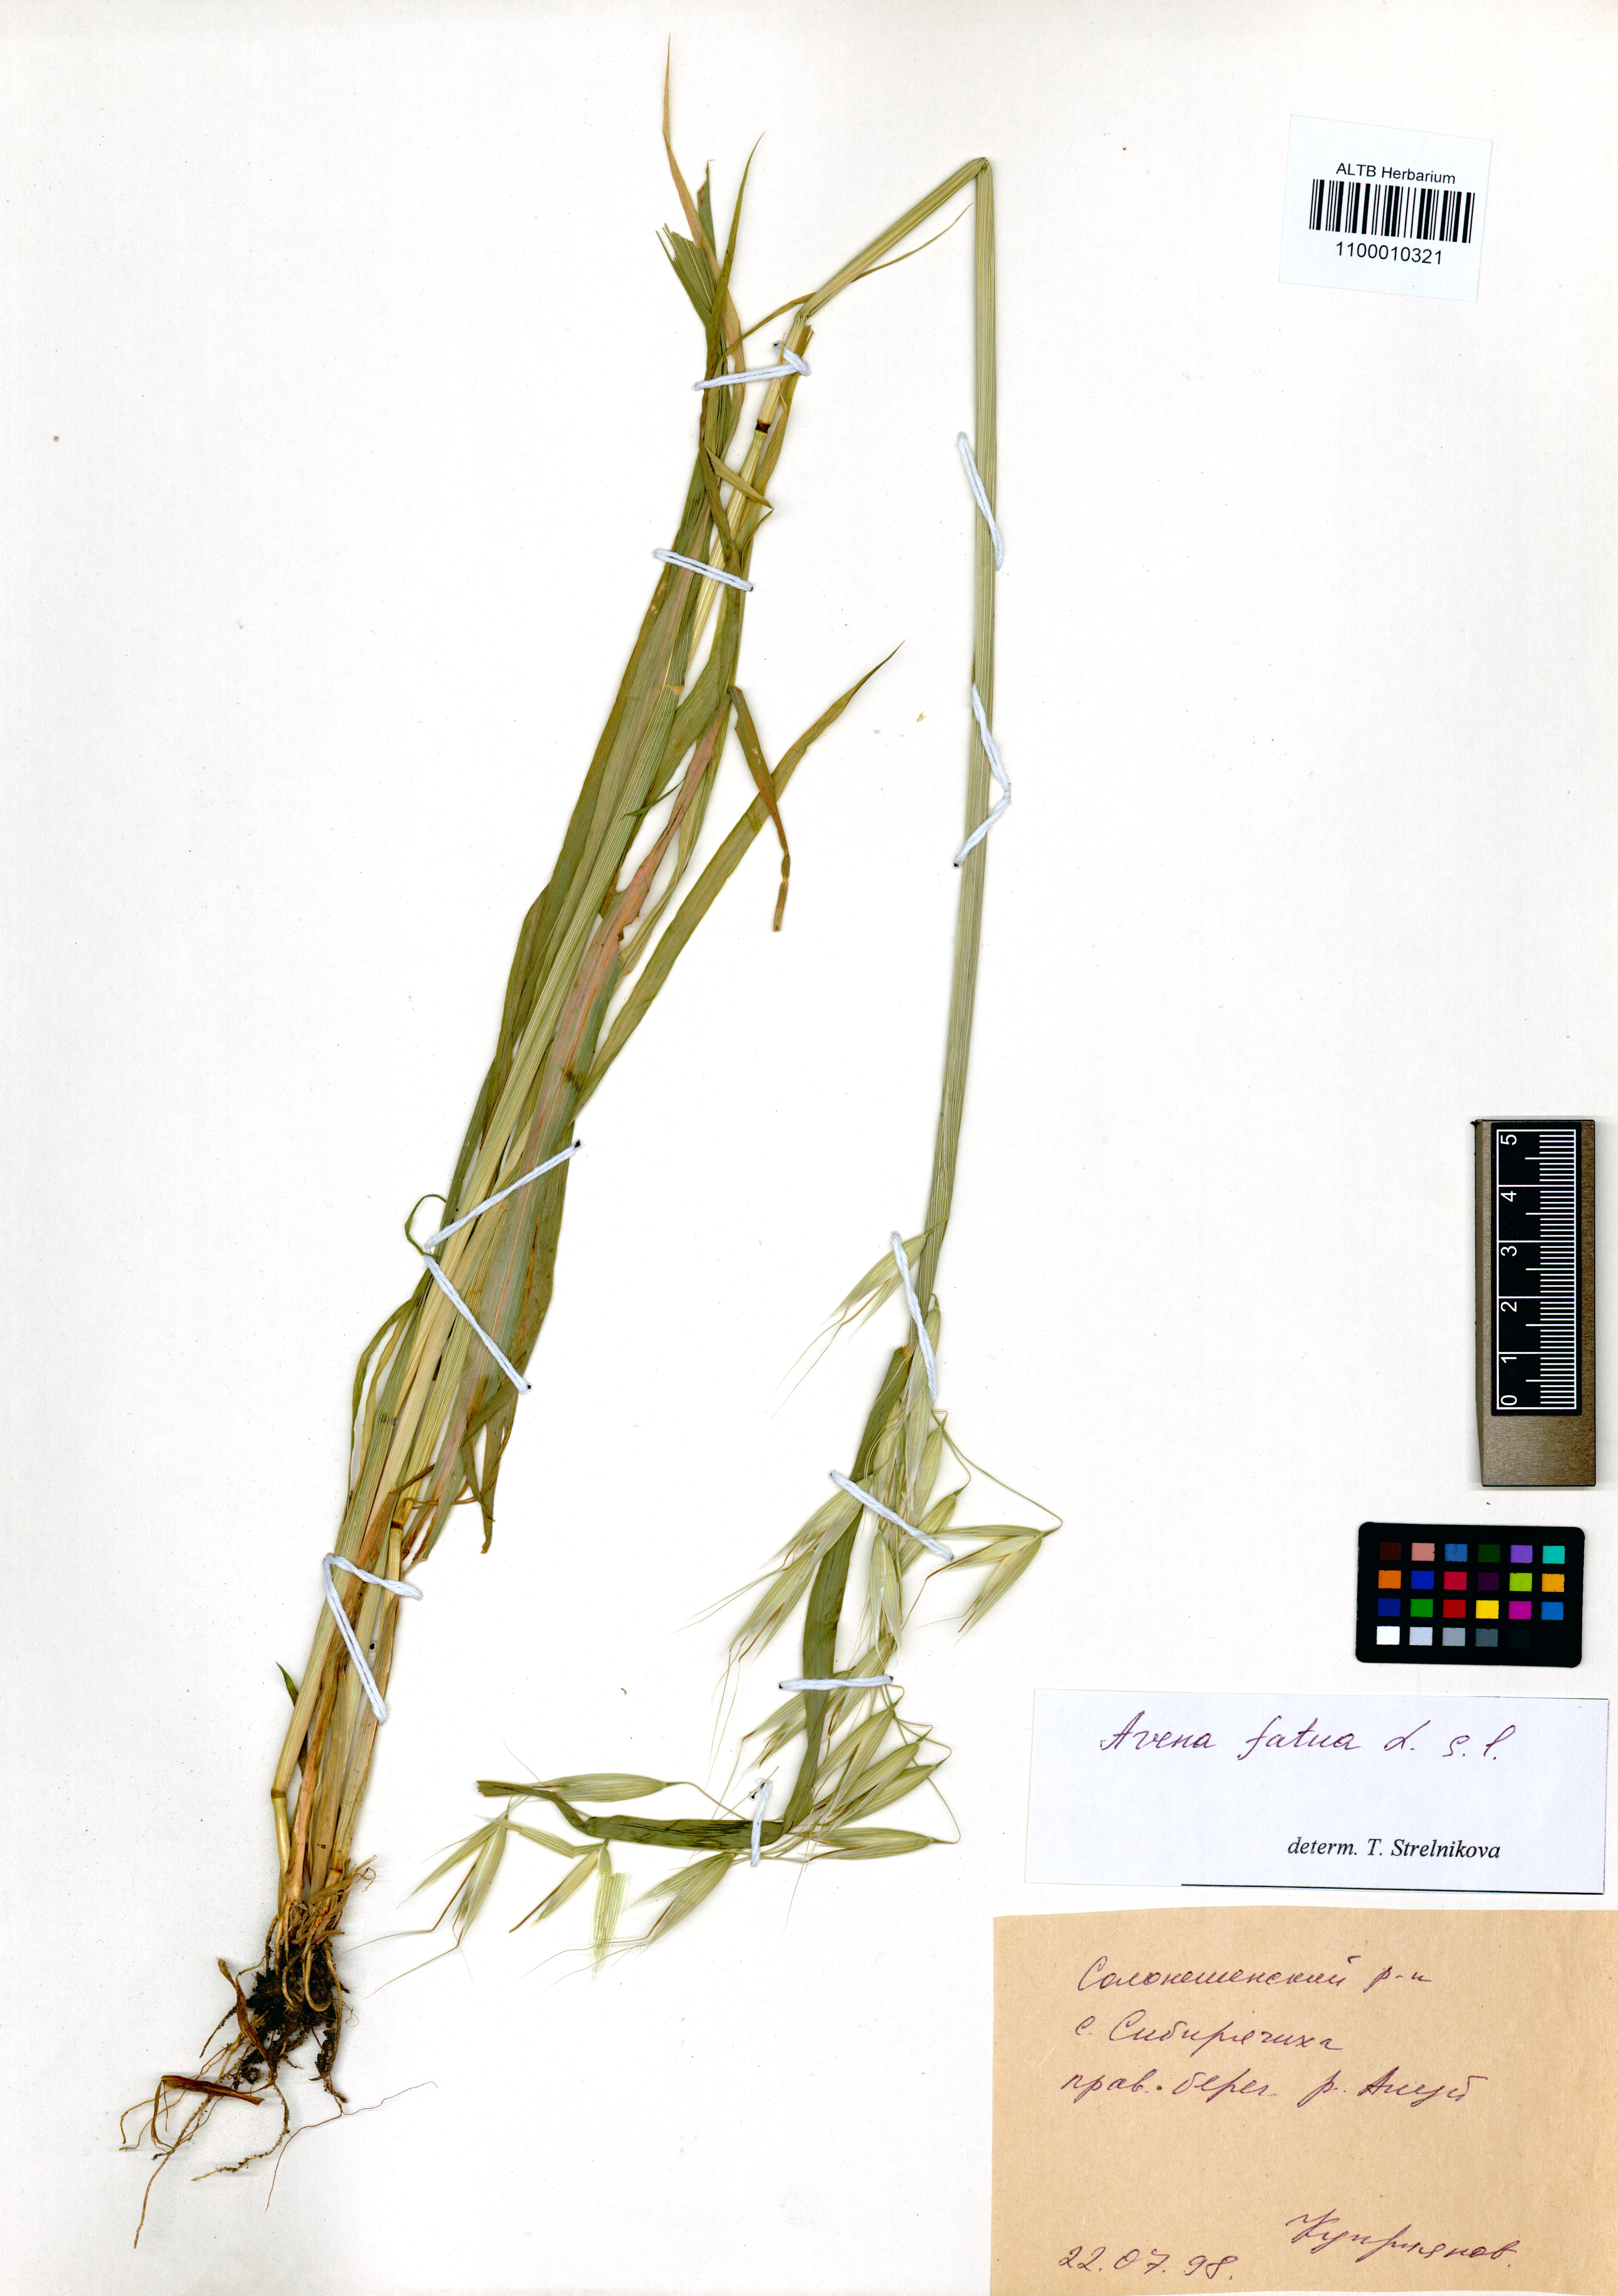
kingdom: Plantae
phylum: Tracheophyta
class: Liliopsida
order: Poales
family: Poaceae
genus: Avena
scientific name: Avena fatua
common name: Wild oat
